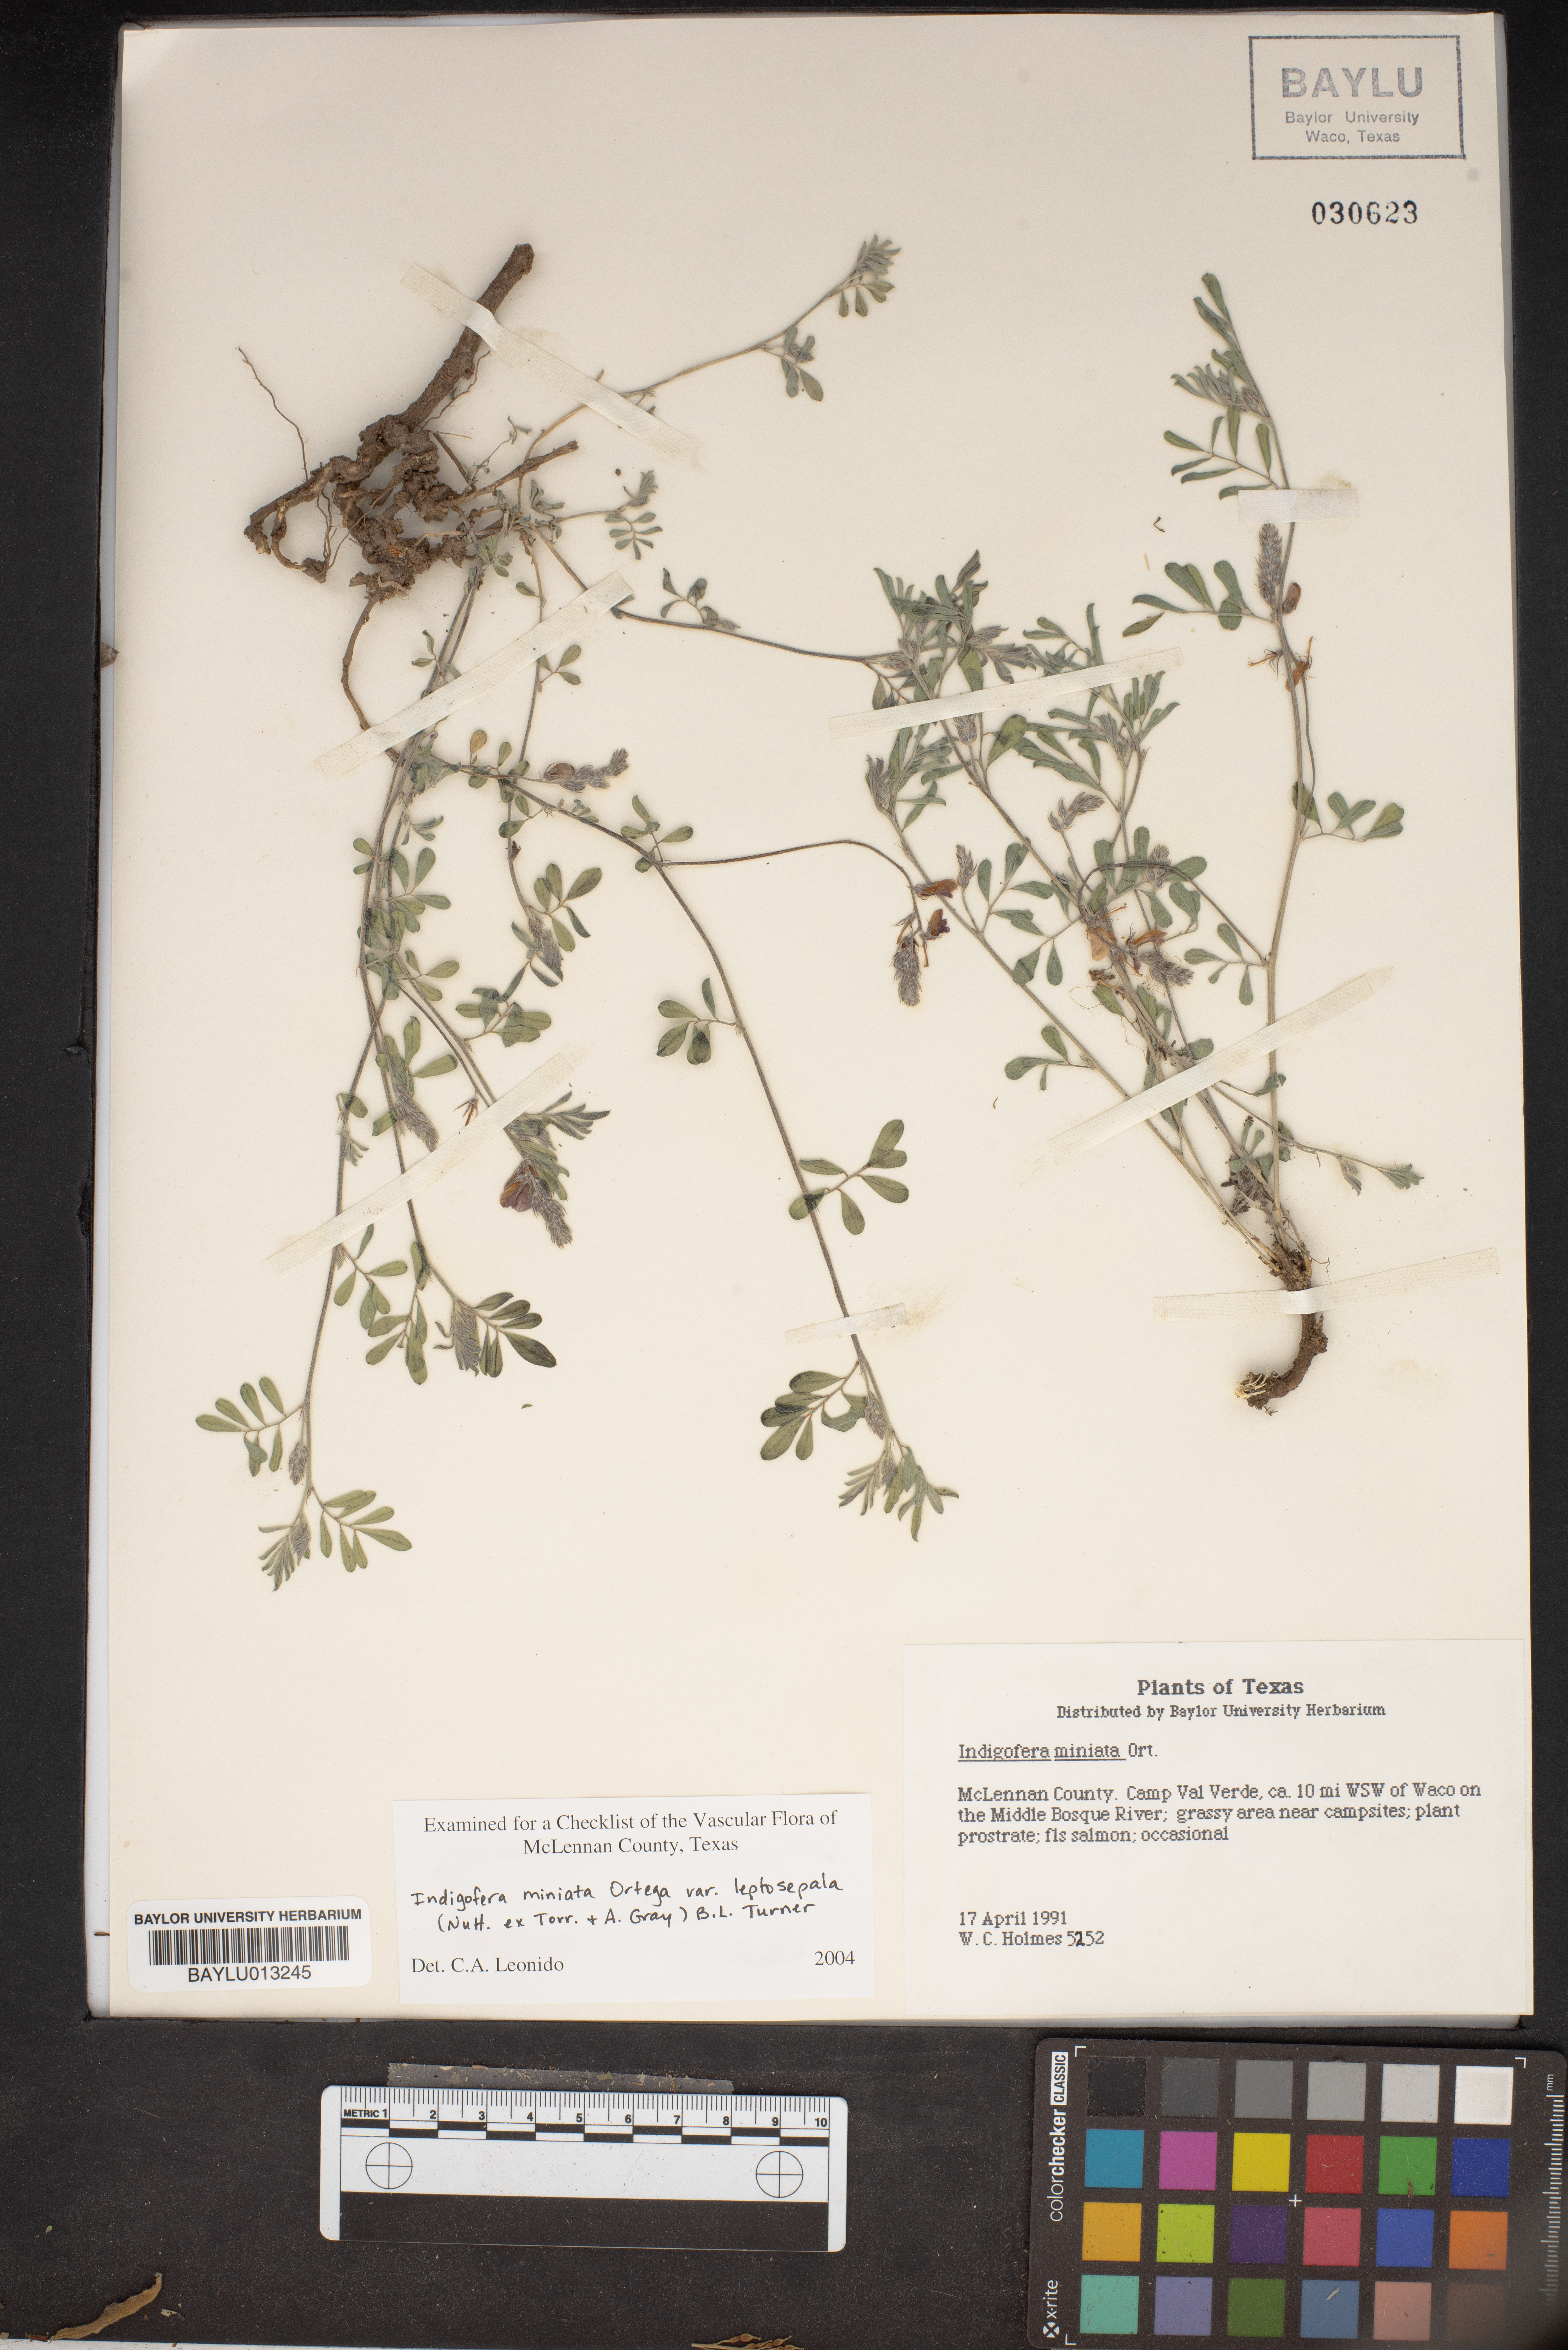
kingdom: Plantae
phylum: Tracheophyta
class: Magnoliopsida
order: Fabales
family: Fabaceae
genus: Indigofera
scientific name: Indigofera miniata
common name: Coast indigo
